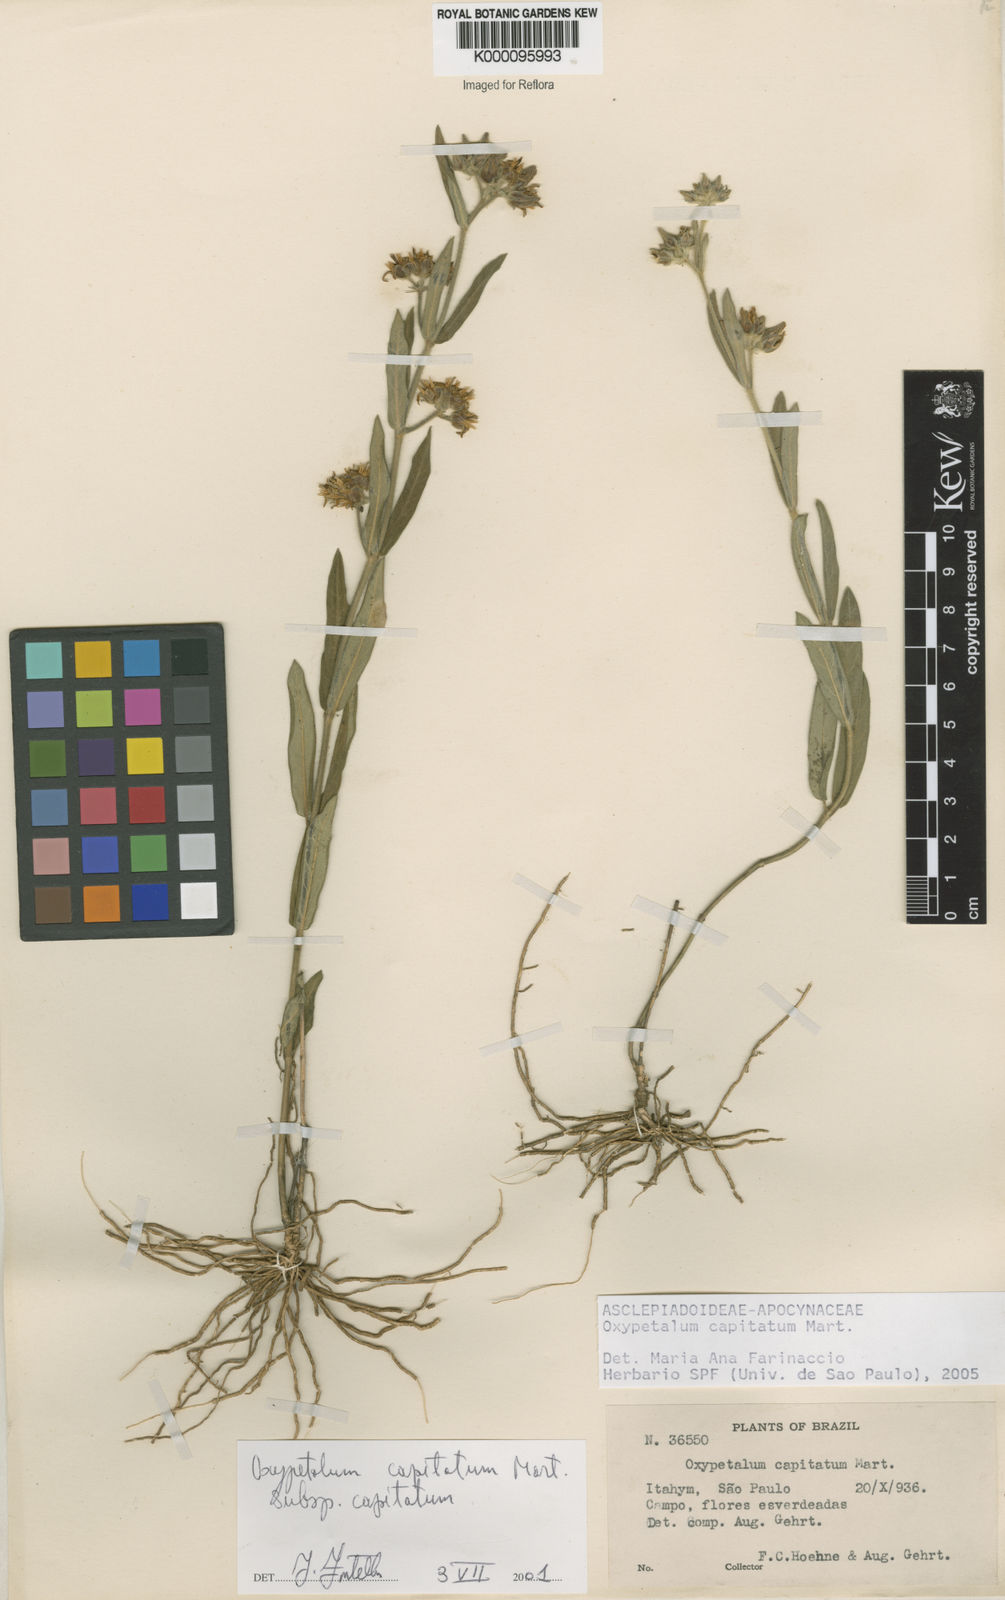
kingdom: Plantae
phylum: Tracheophyta
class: Magnoliopsida
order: Gentianales
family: Apocynaceae
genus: Oxypetalum
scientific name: Oxypetalum capitatum
